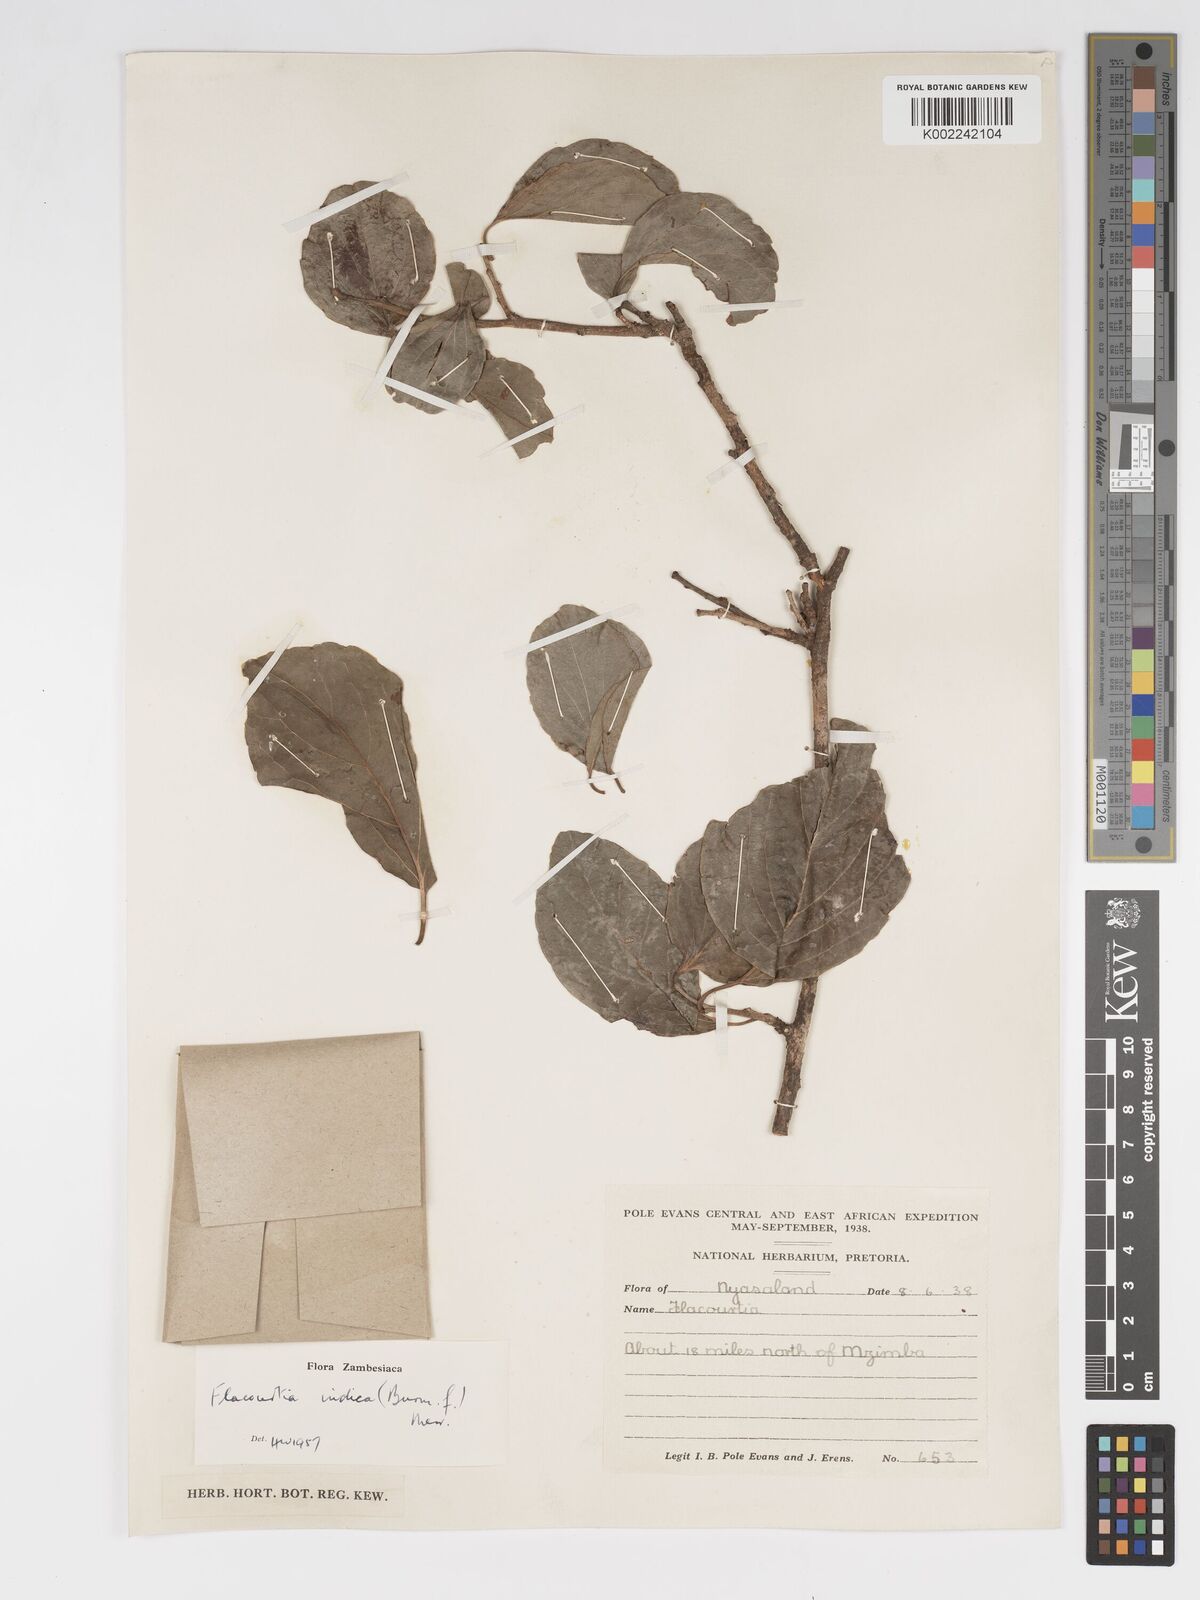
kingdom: Plantae
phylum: Tracheophyta
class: Magnoliopsida
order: Malpighiales
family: Salicaceae
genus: Flacourtia
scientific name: Flacourtia indica
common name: Governor's plum
